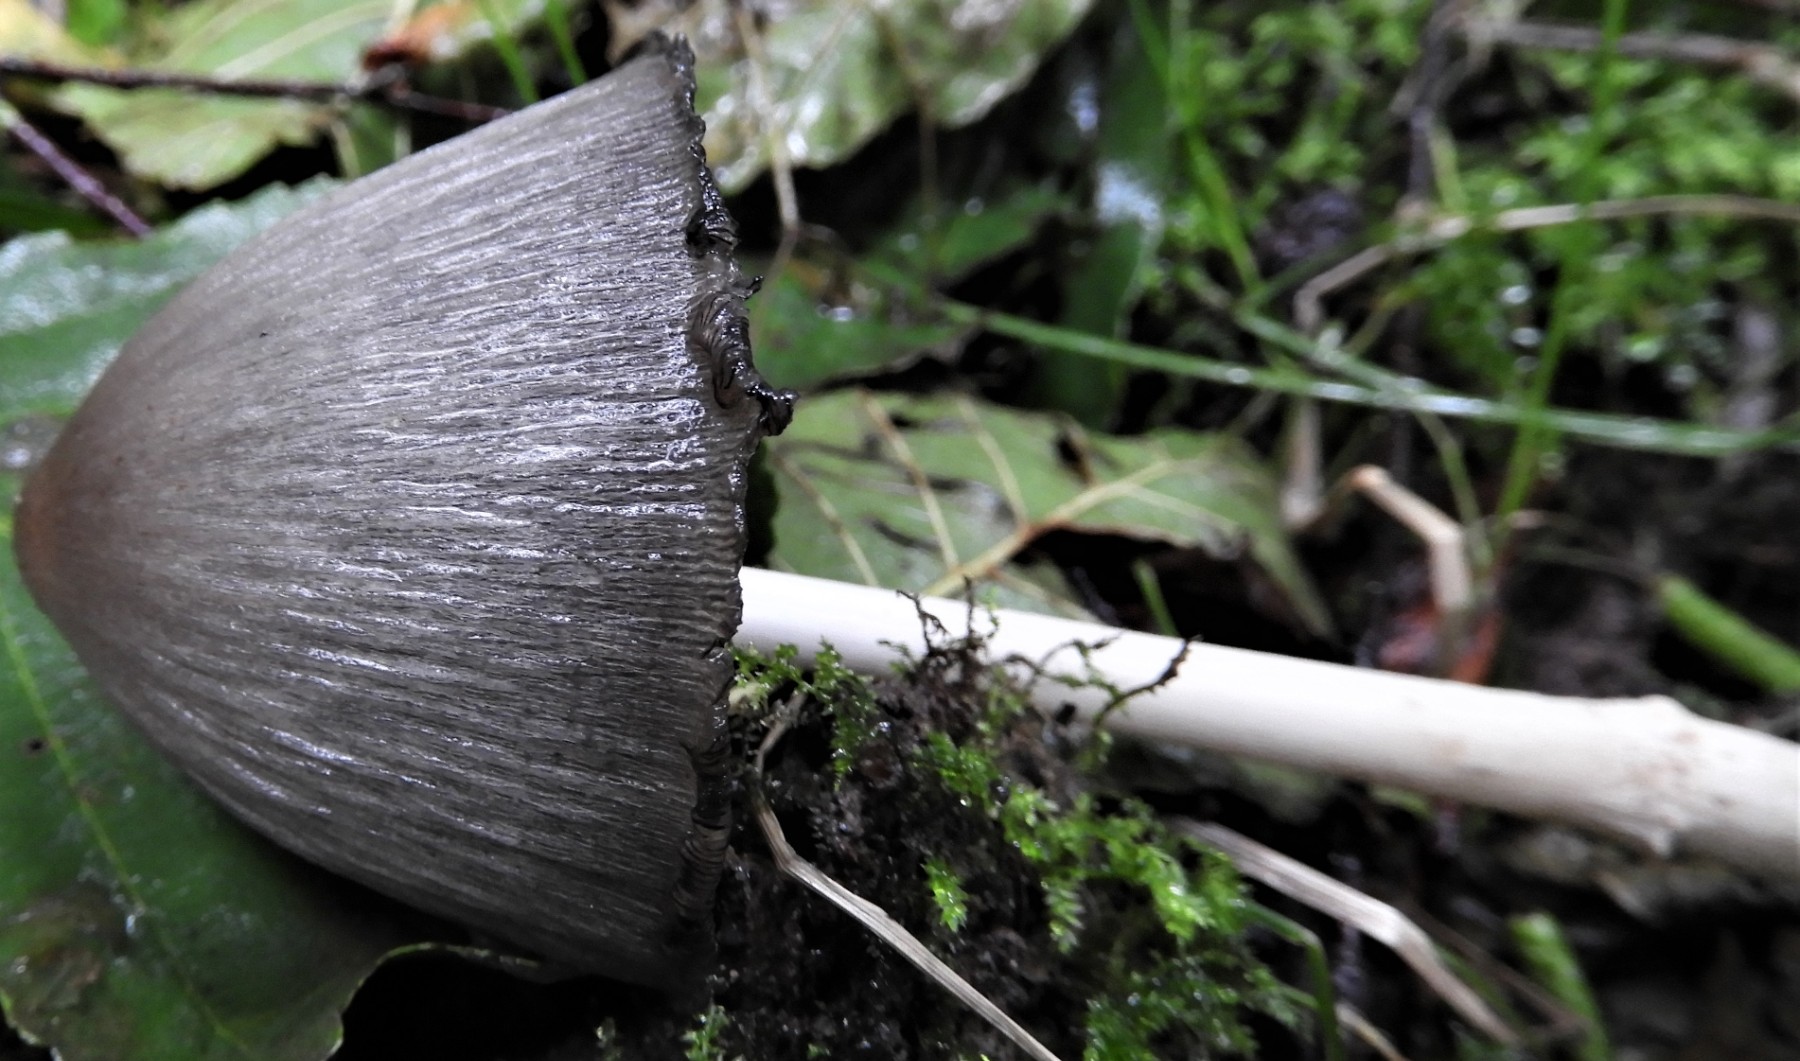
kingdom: Fungi
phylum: Basidiomycota
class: Agaricomycetes
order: Agaricales
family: Psathyrellaceae
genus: Coprinopsis
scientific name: Coprinopsis atramentaria
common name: almindelig blækhat
